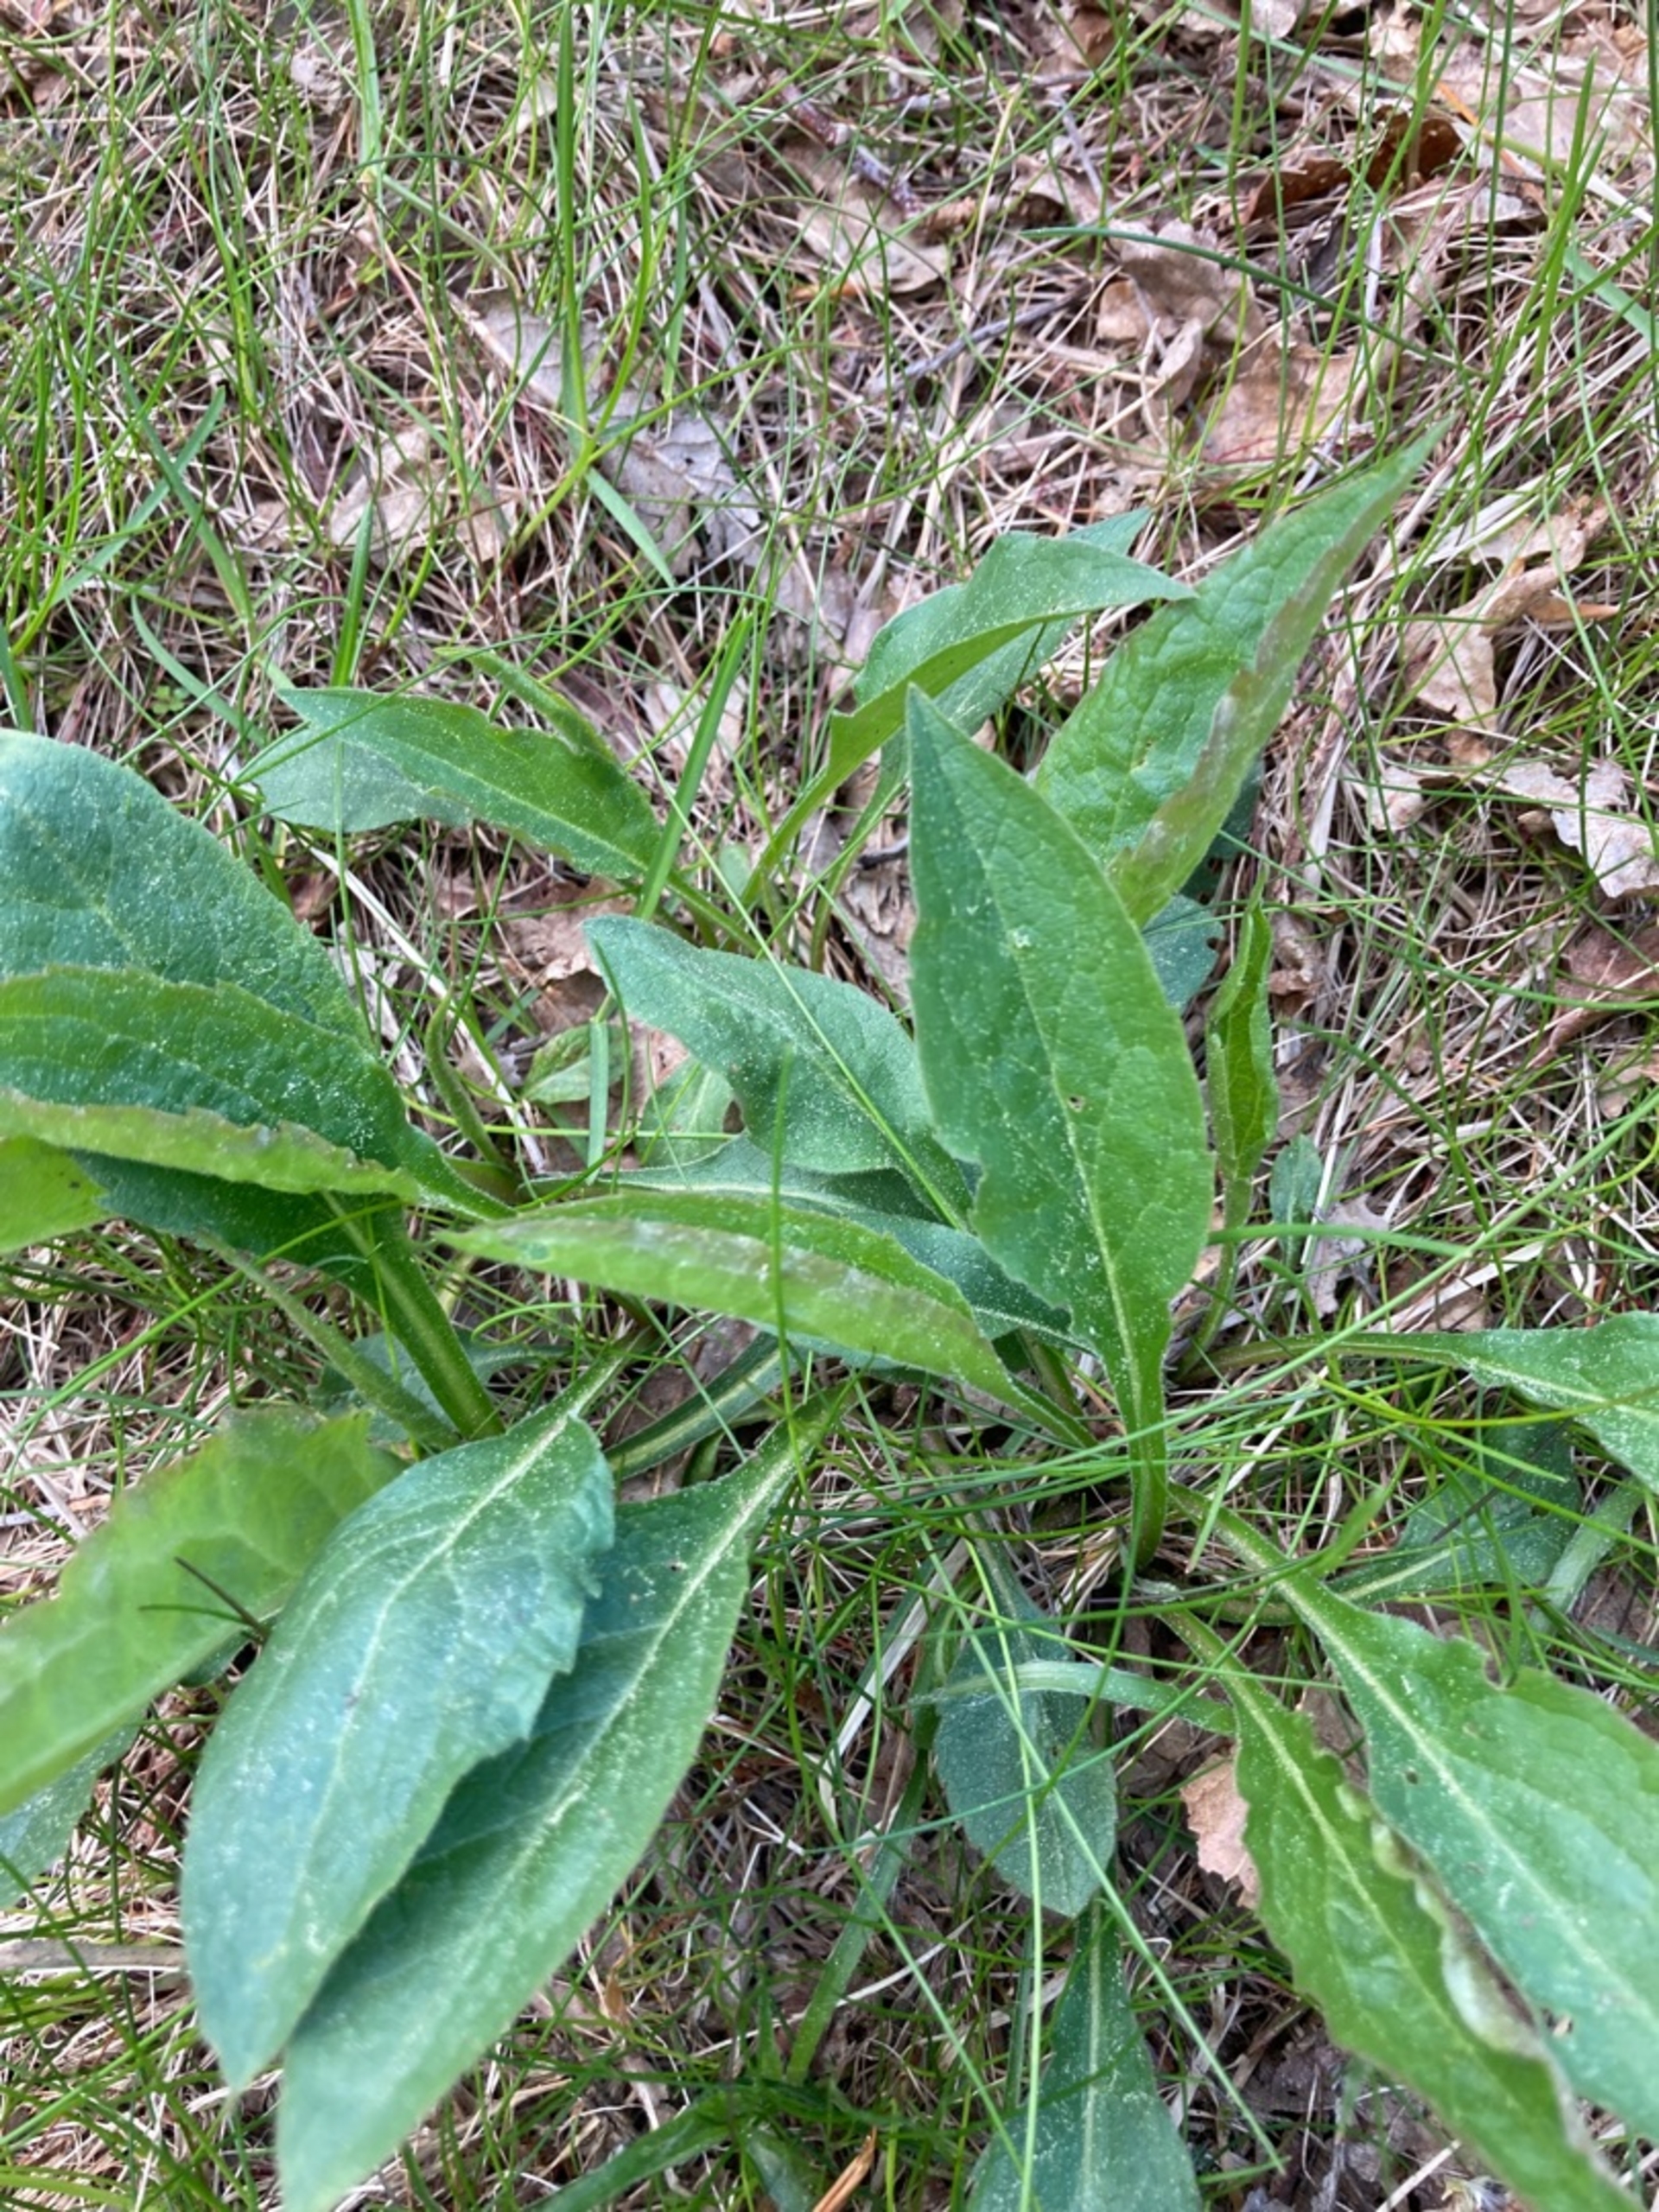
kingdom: Plantae
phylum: Tracheophyta
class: Magnoliopsida
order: Asterales
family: Asteraceae
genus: Solidago
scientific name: Solidago virgaurea
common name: Almindelig gyldenris
